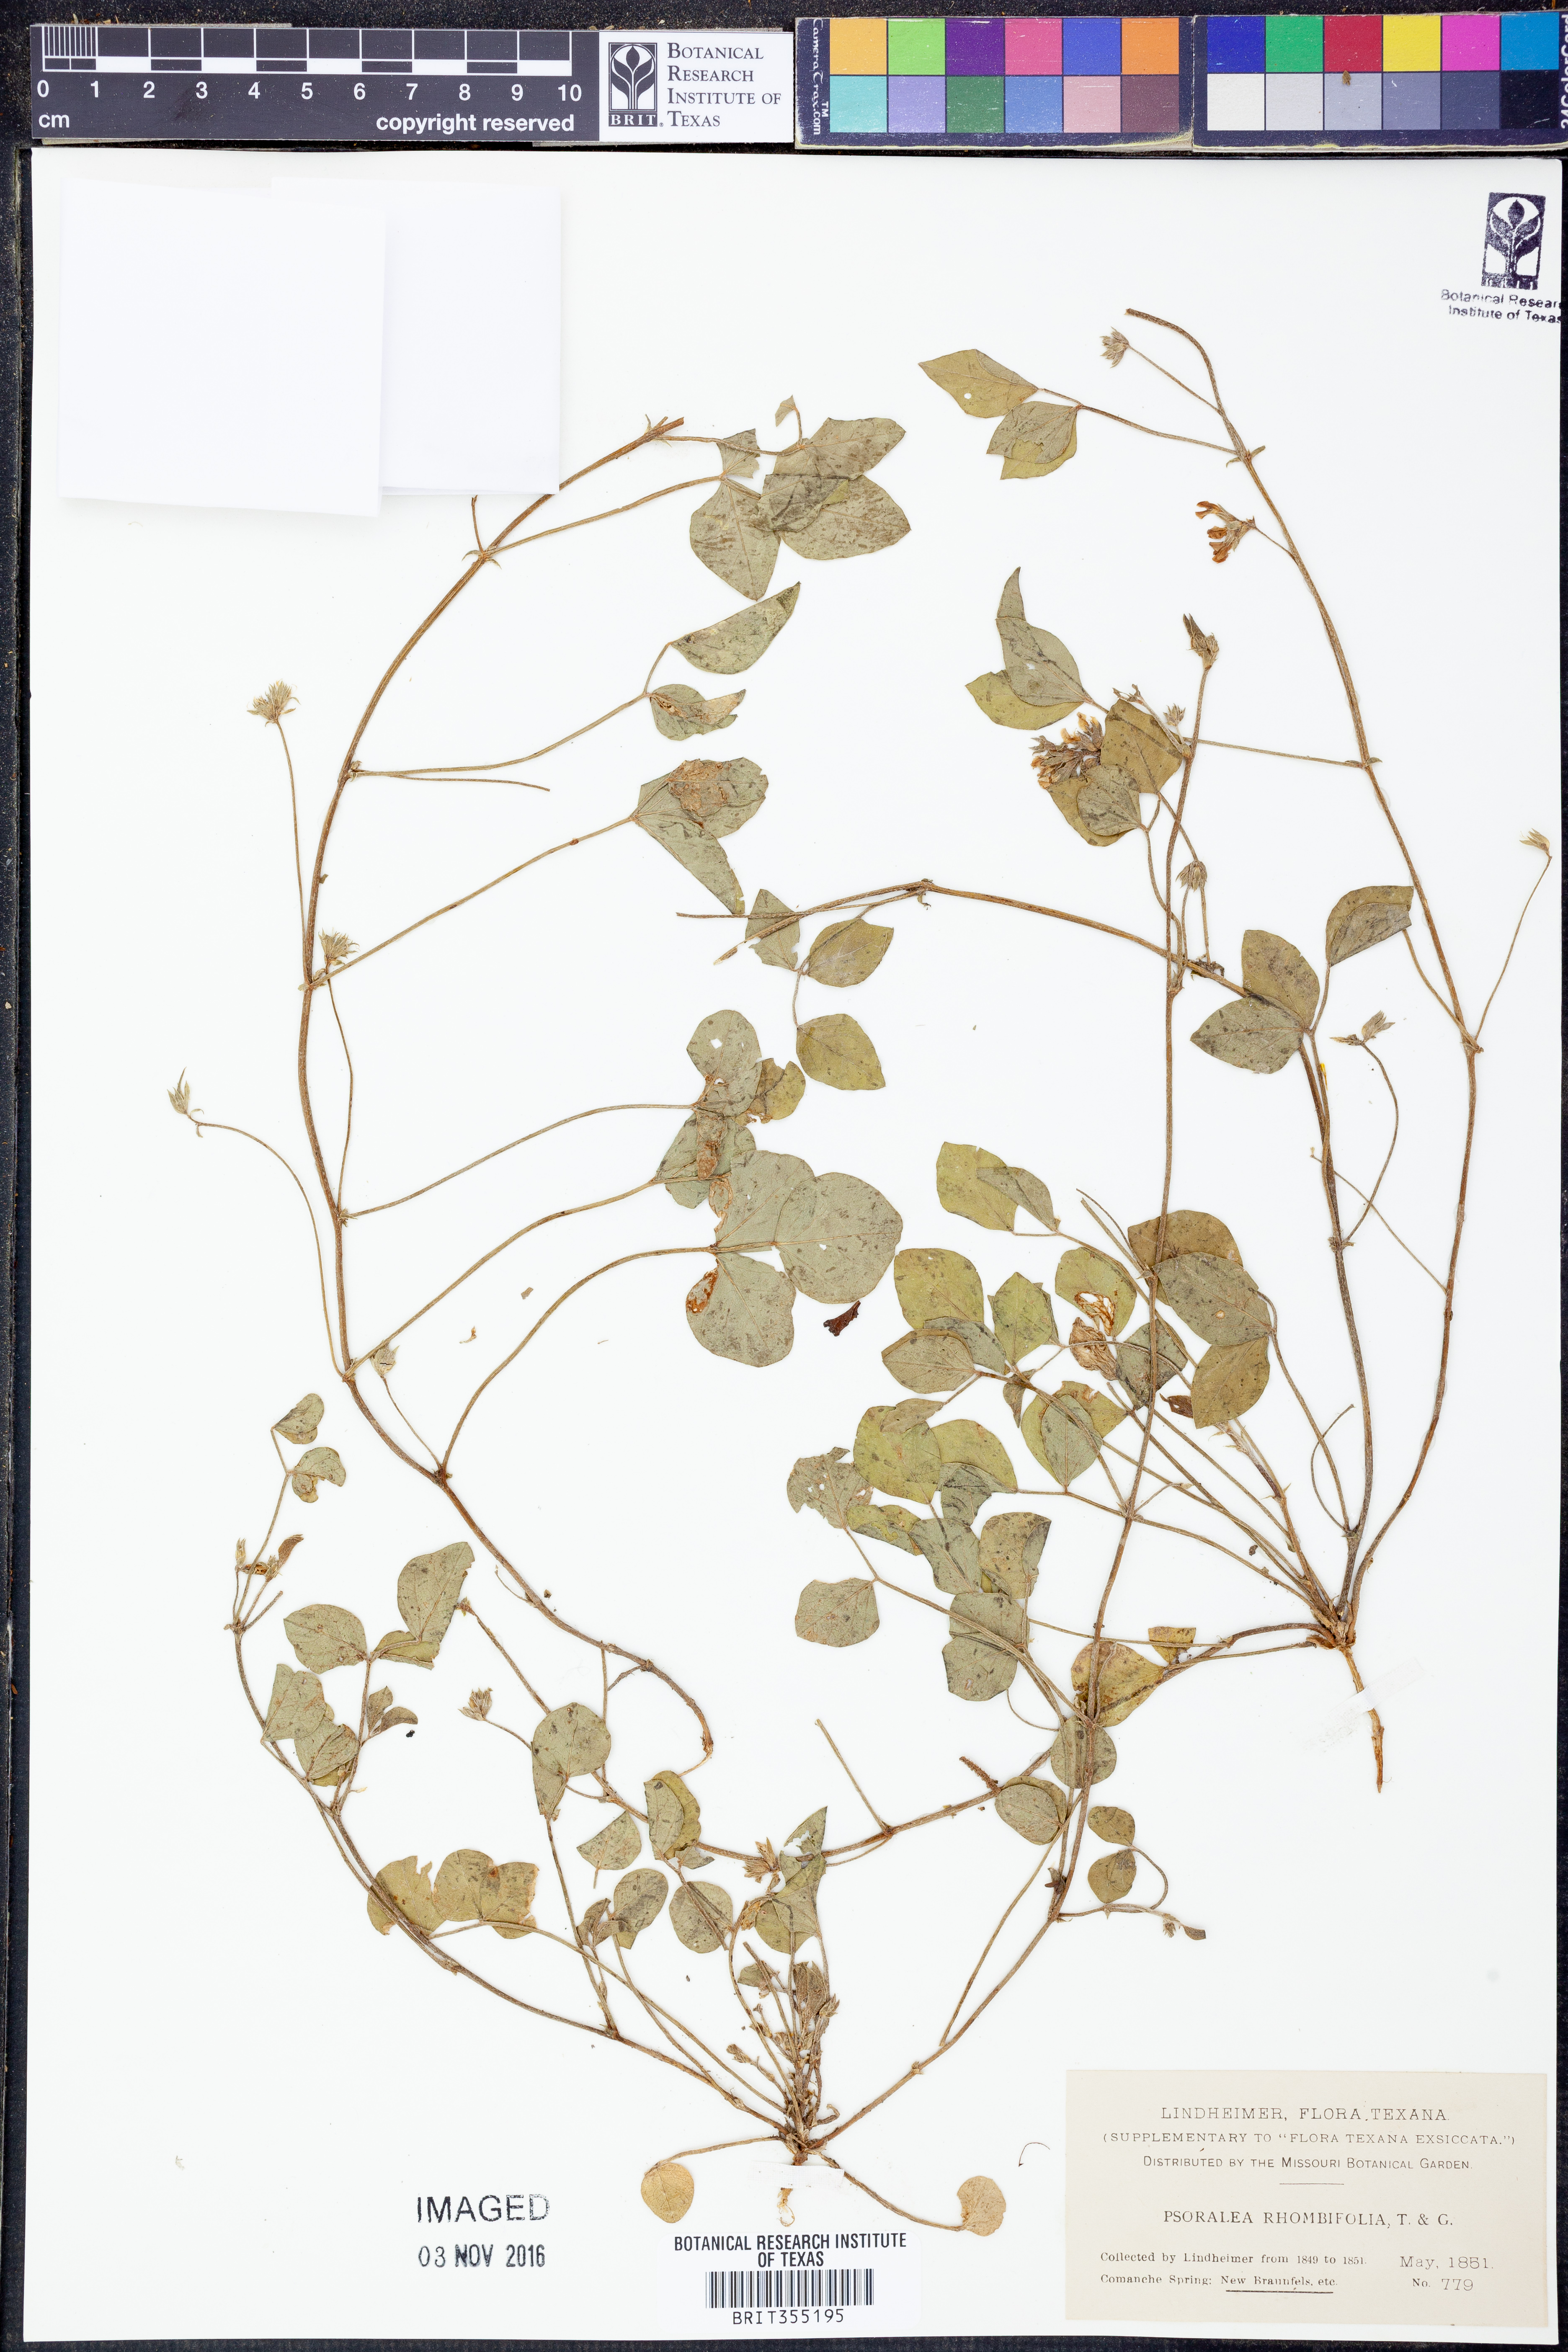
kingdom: Plantae
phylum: Tracheophyta
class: Magnoliopsida
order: Fabales
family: Fabaceae
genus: Pediomelum
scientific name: Pediomelum rhombifolium
